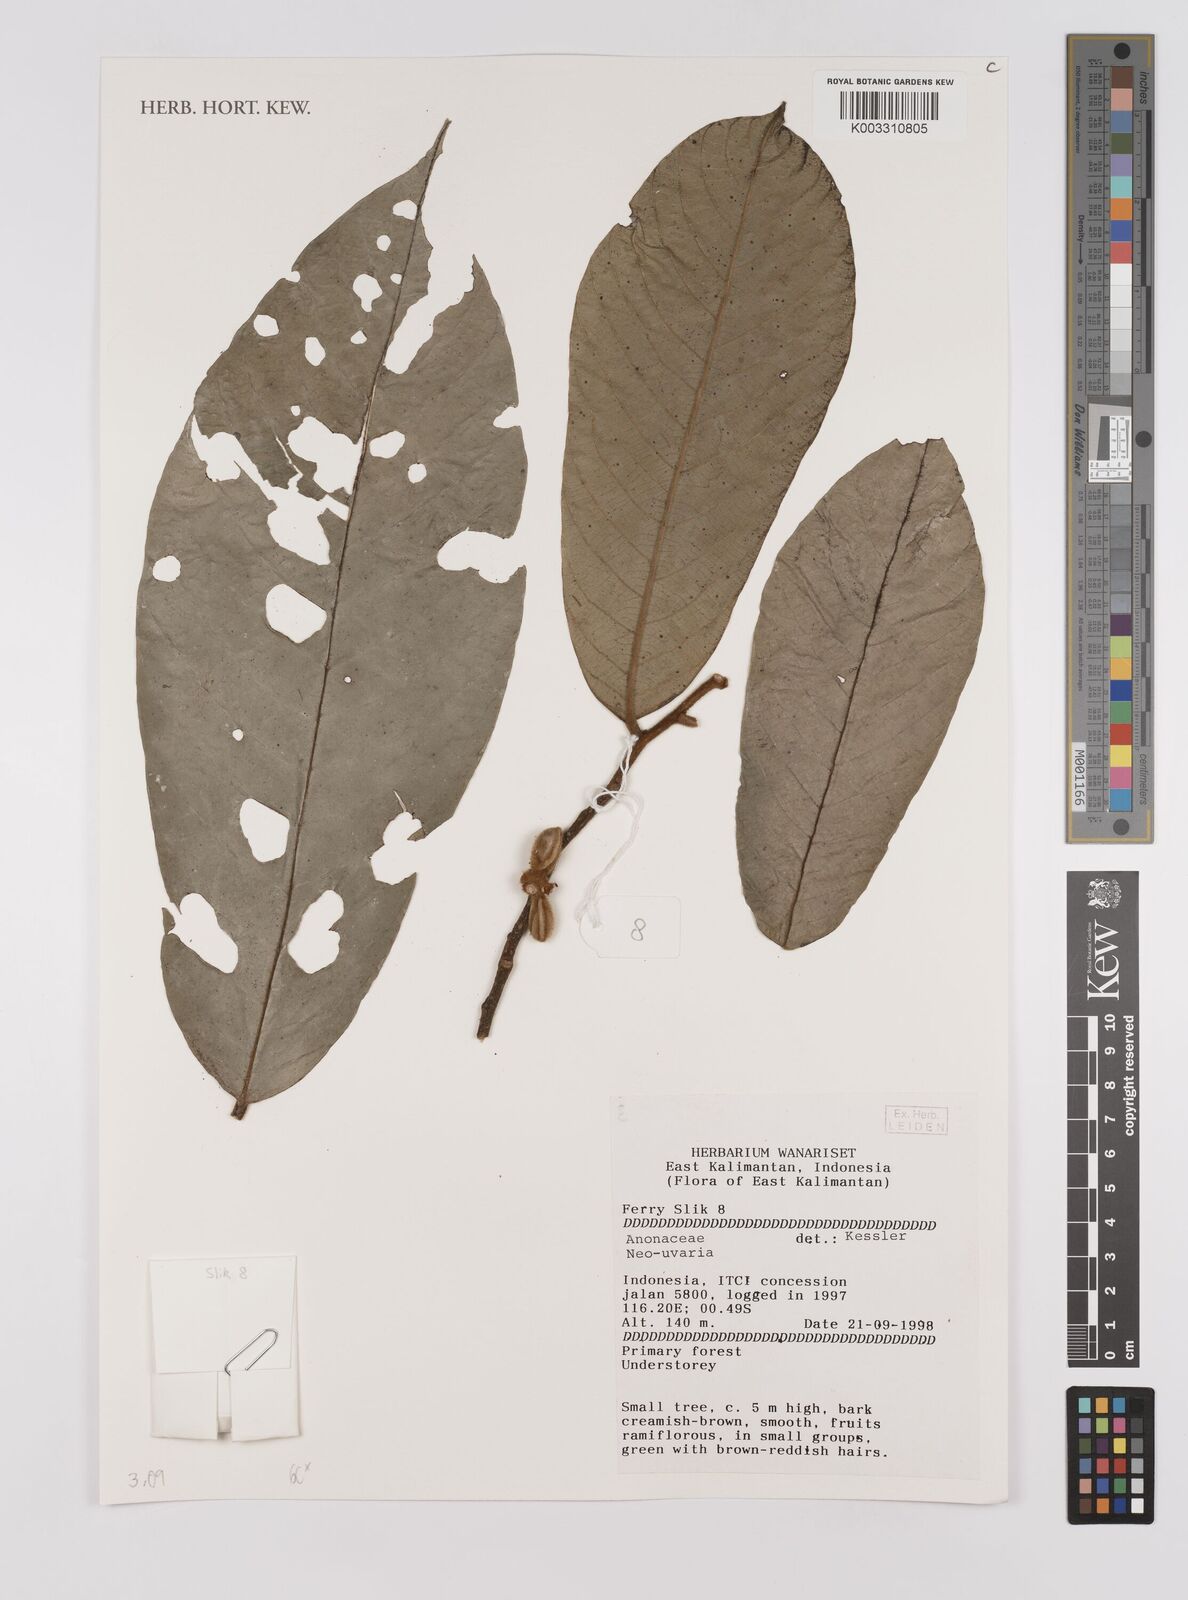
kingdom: Plantae
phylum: Tracheophyta
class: Magnoliopsida
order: Magnoliales
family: Annonaceae
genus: Neo-uvaria
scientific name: Neo-uvaria
